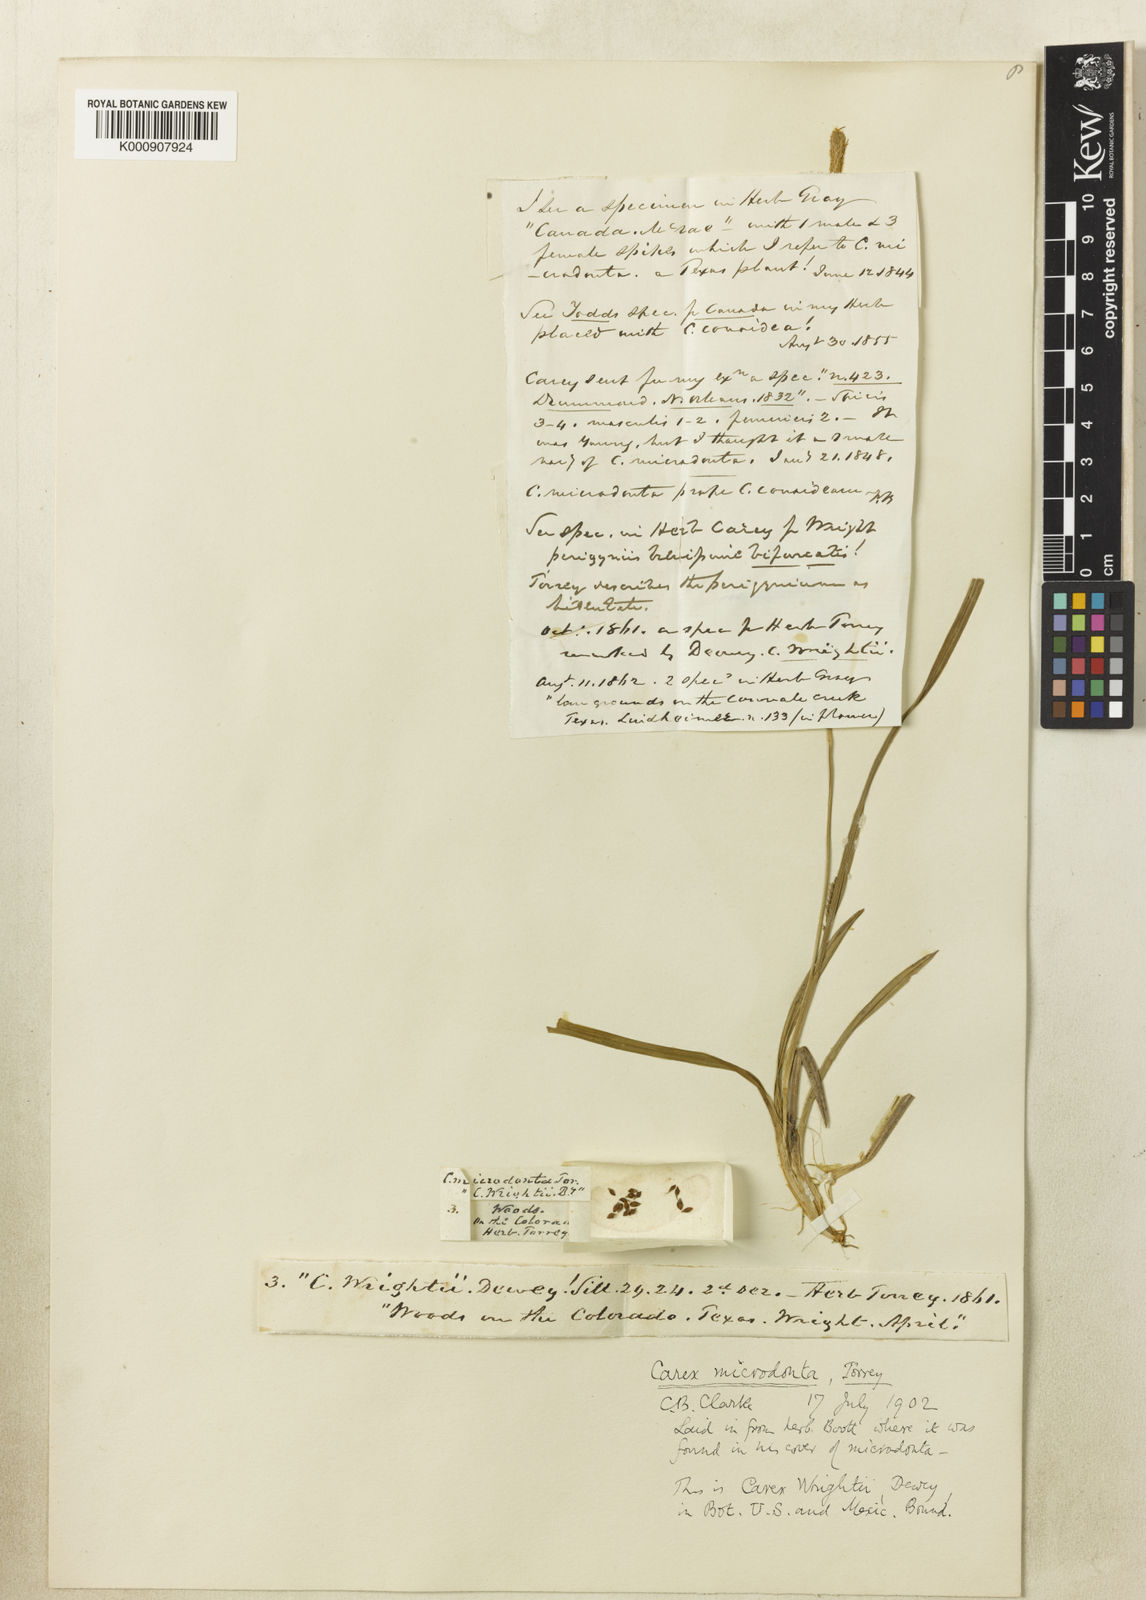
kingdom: Plantae
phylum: Tracheophyta
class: Liliopsida
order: Poales
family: Cyperaceae
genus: Carex
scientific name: Carex microdonta
